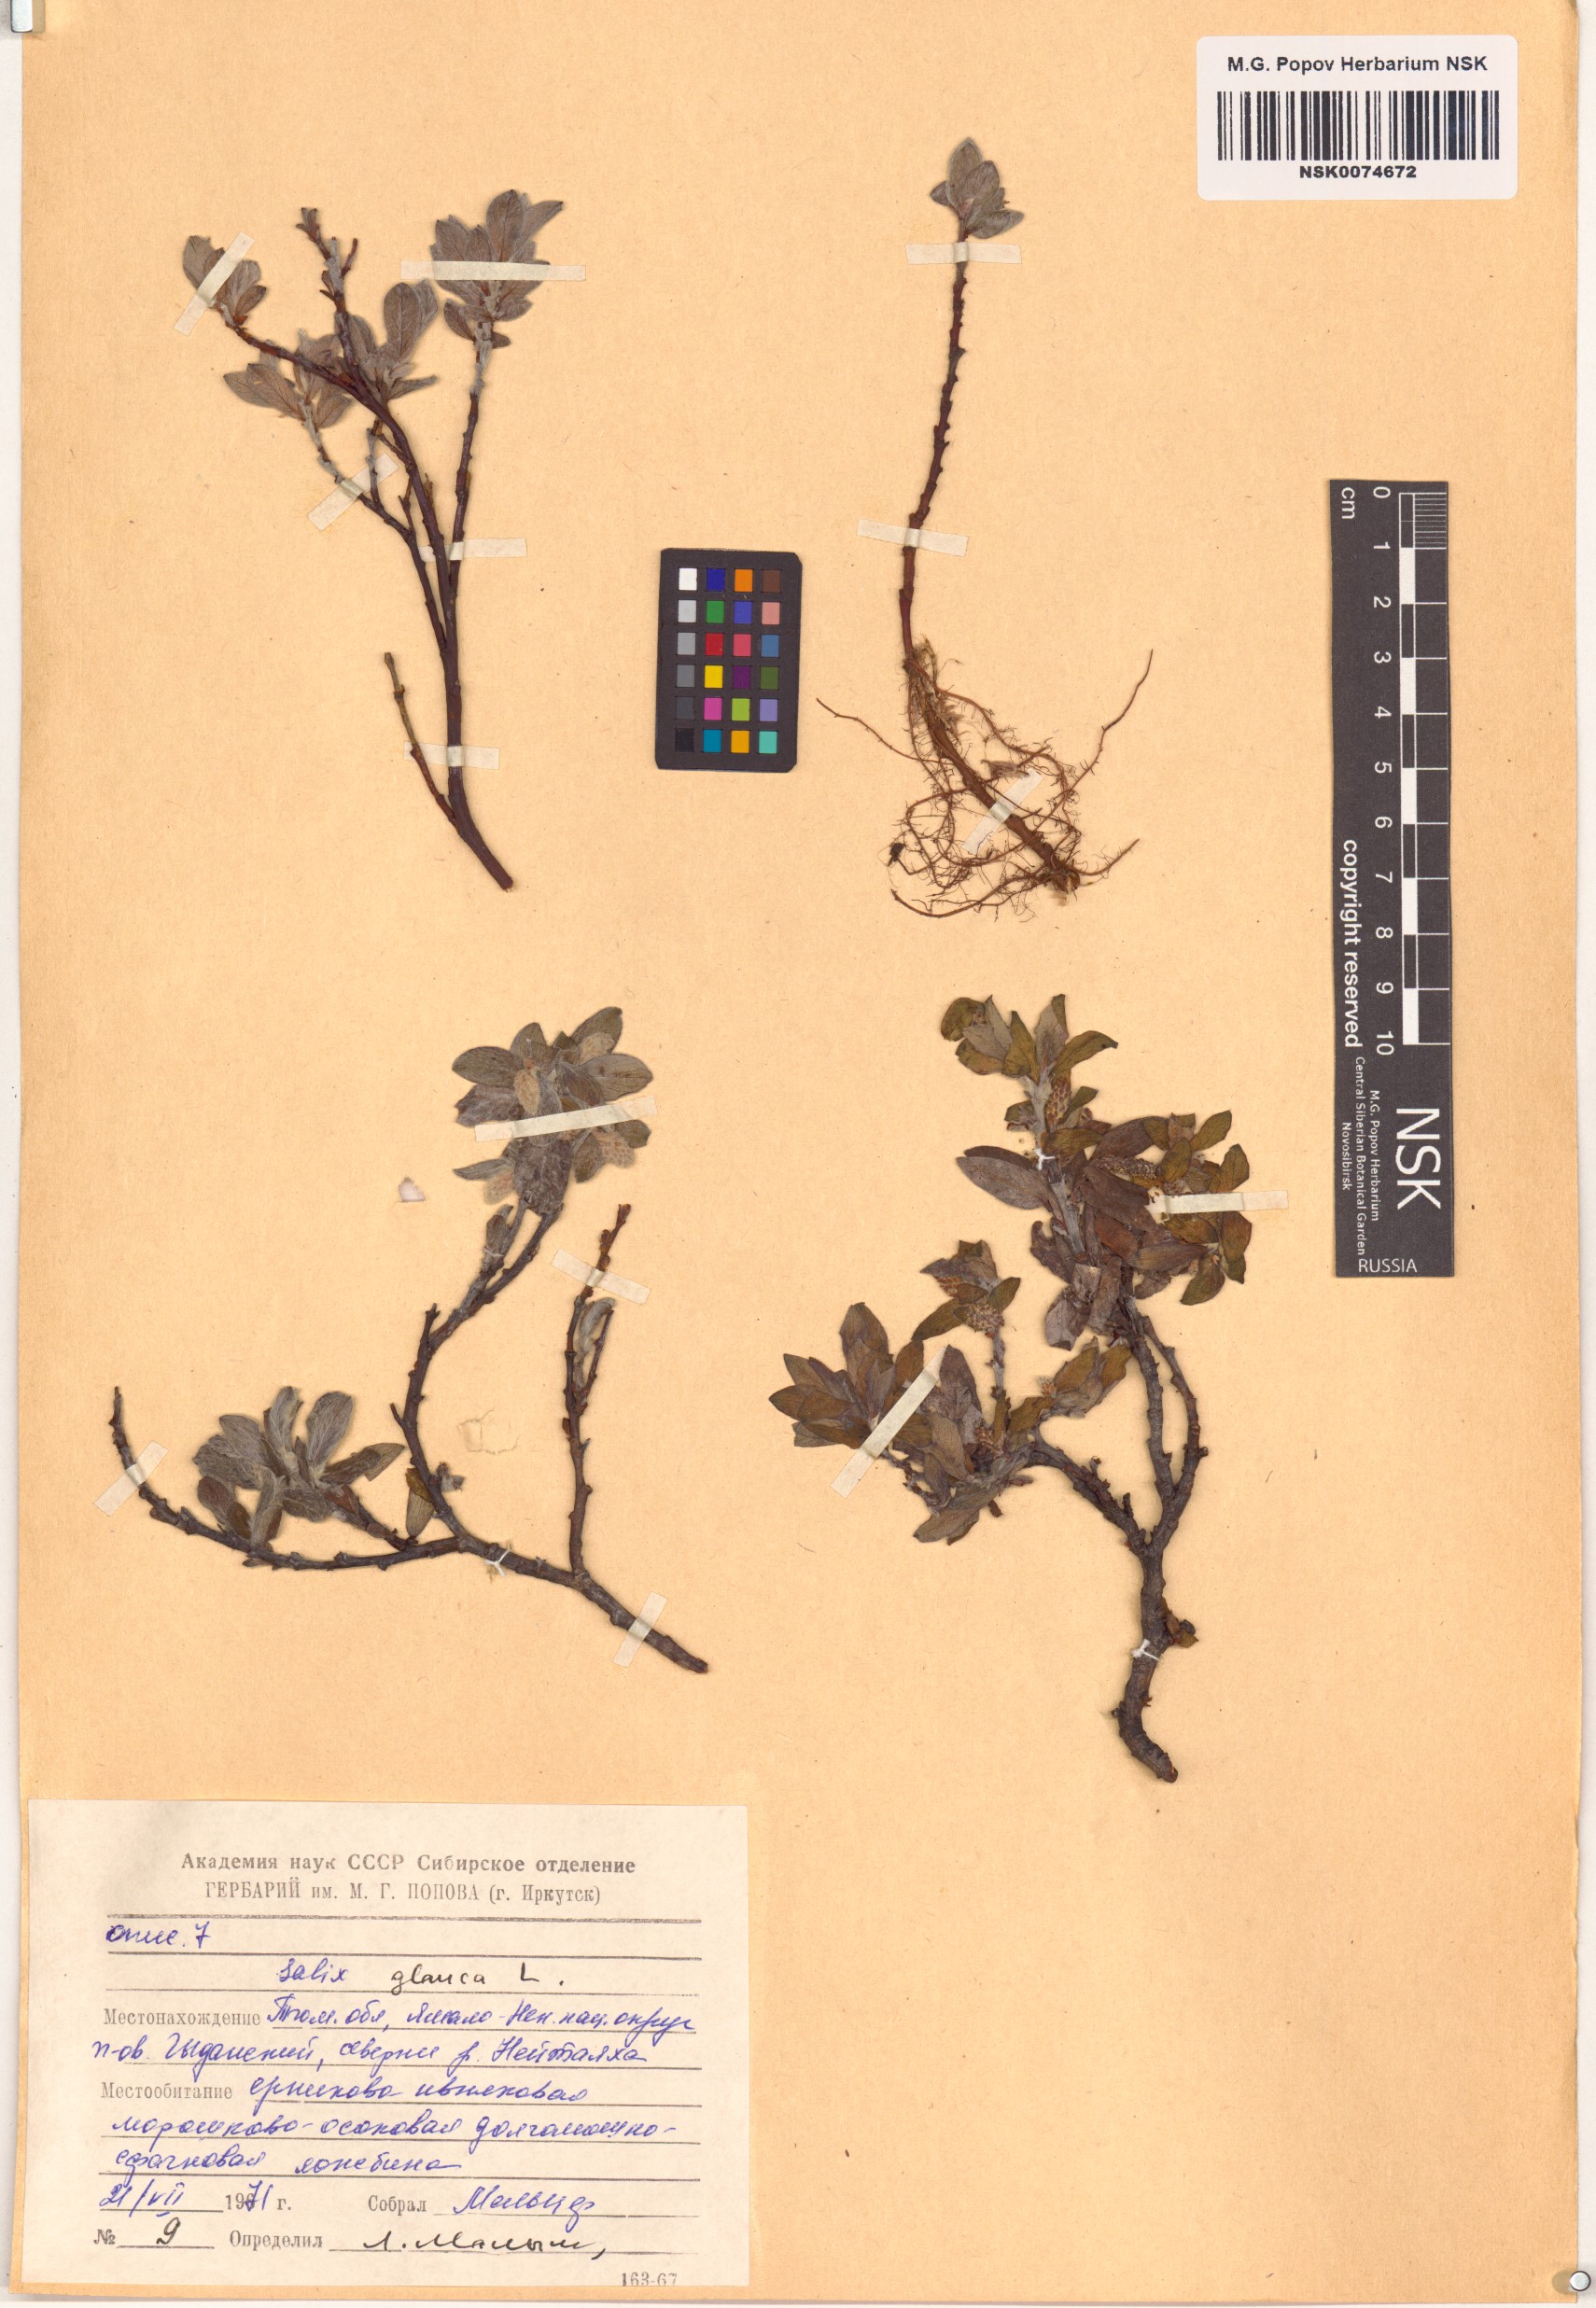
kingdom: Plantae
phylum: Tracheophyta
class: Magnoliopsida
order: Malpighiales
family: Salicaceae
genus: Salix
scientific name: Salix glauca
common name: Glaucous willow
